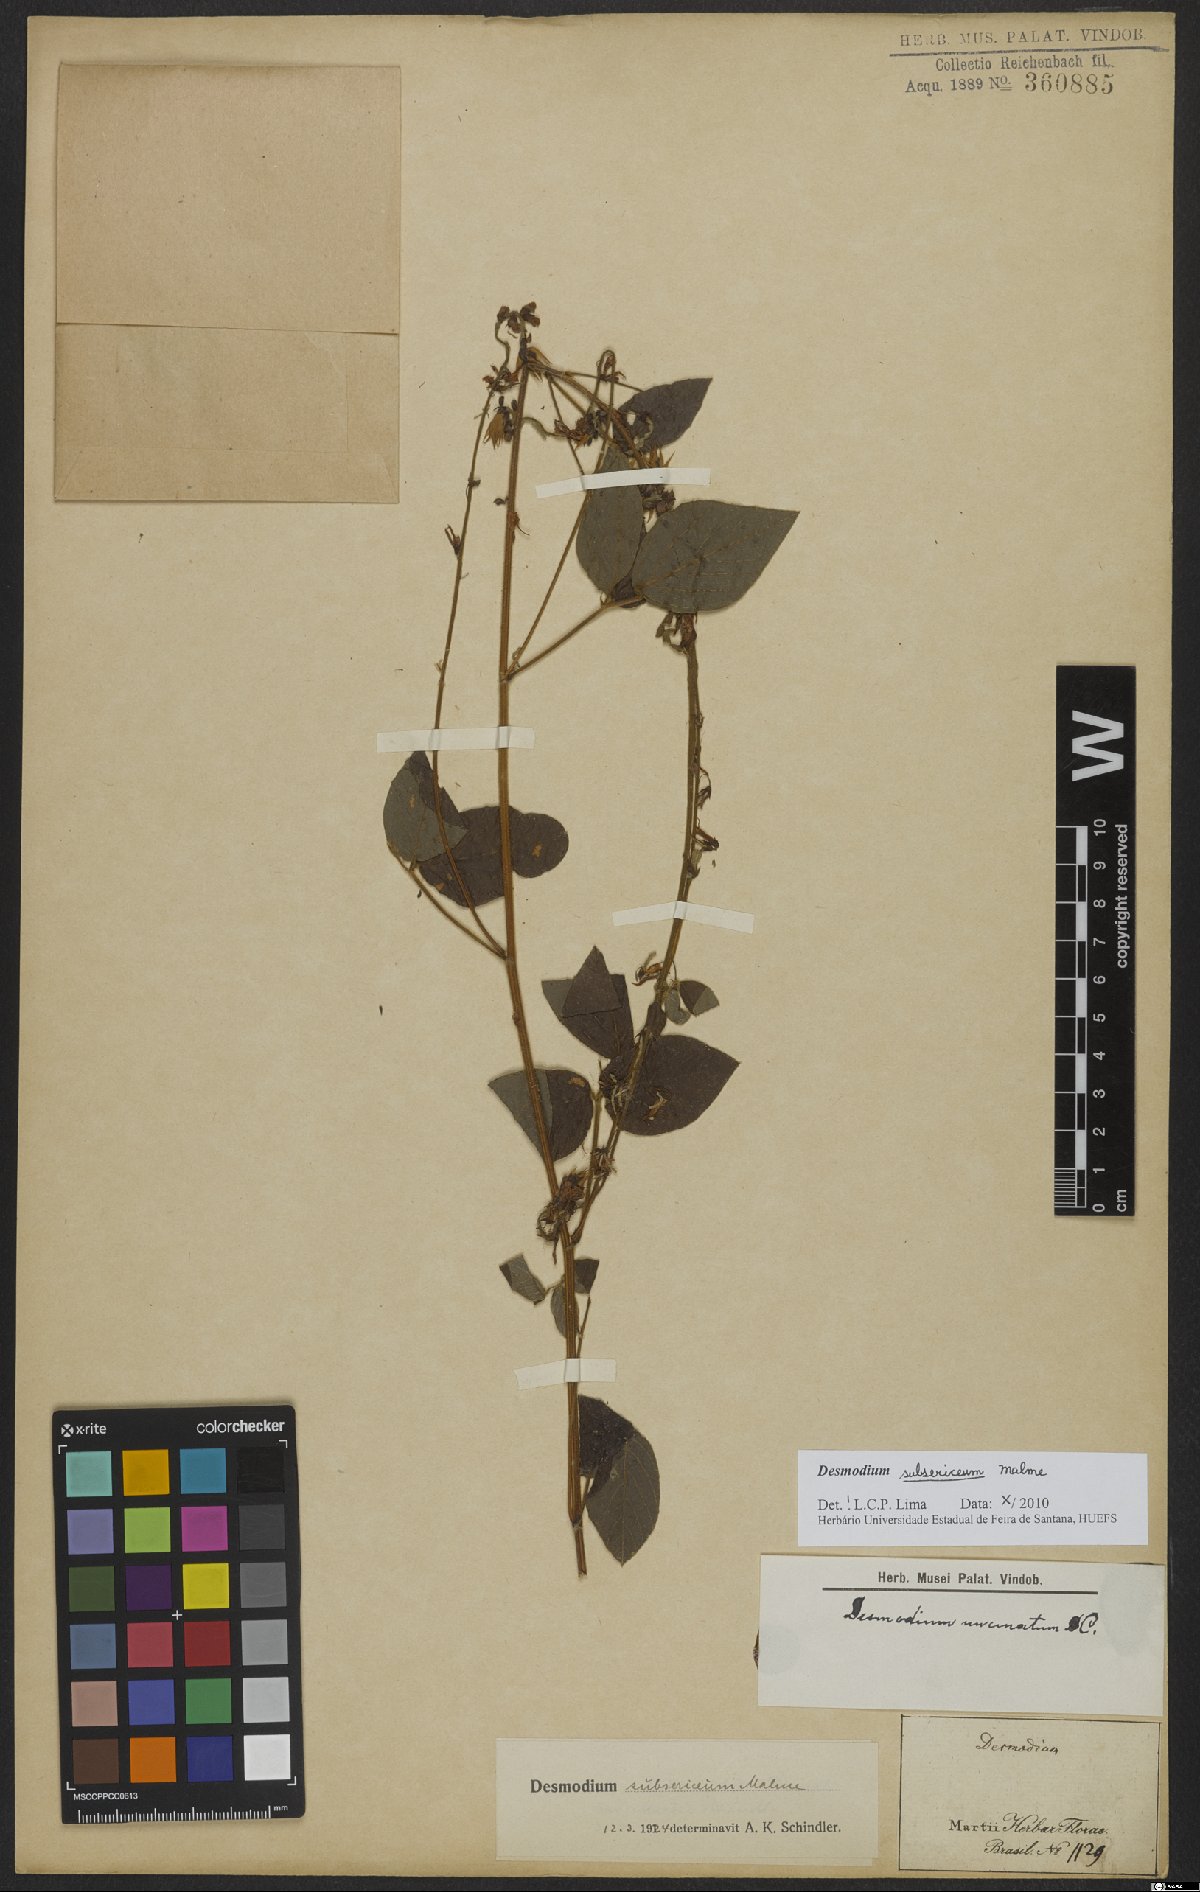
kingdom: Plantae
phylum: Tracheophyta
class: Magnoliopsida
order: Fabales
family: Fabaceae
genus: Desmodium
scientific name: Desmodium subsericeum
